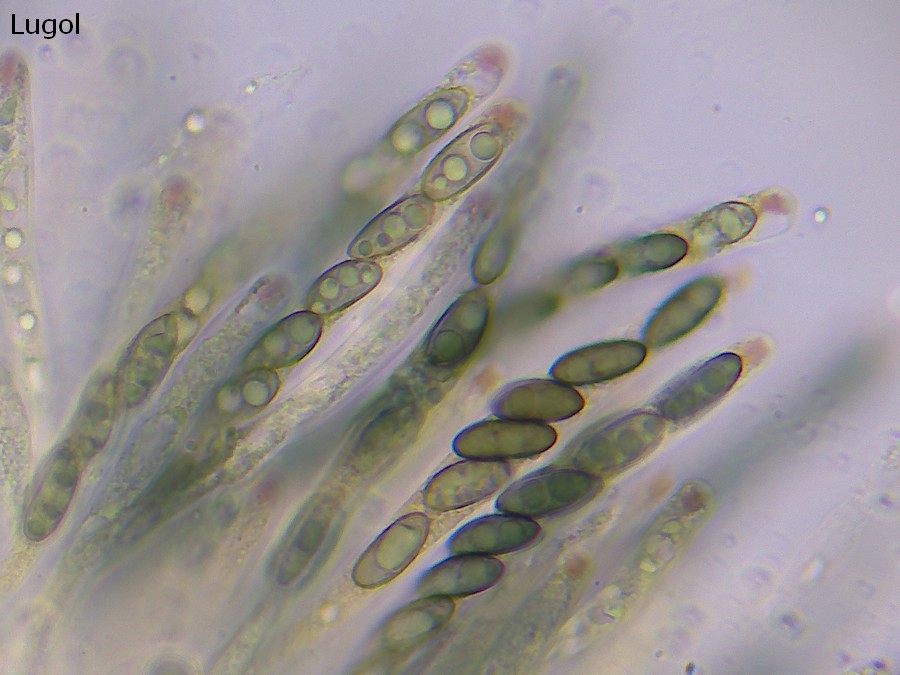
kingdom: Fungi
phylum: Ascomycota
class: Sordariomycetes
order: Xylariales
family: Xylariaceae
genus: Nemania
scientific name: Nemania serpens
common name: almindelig kuldyne
